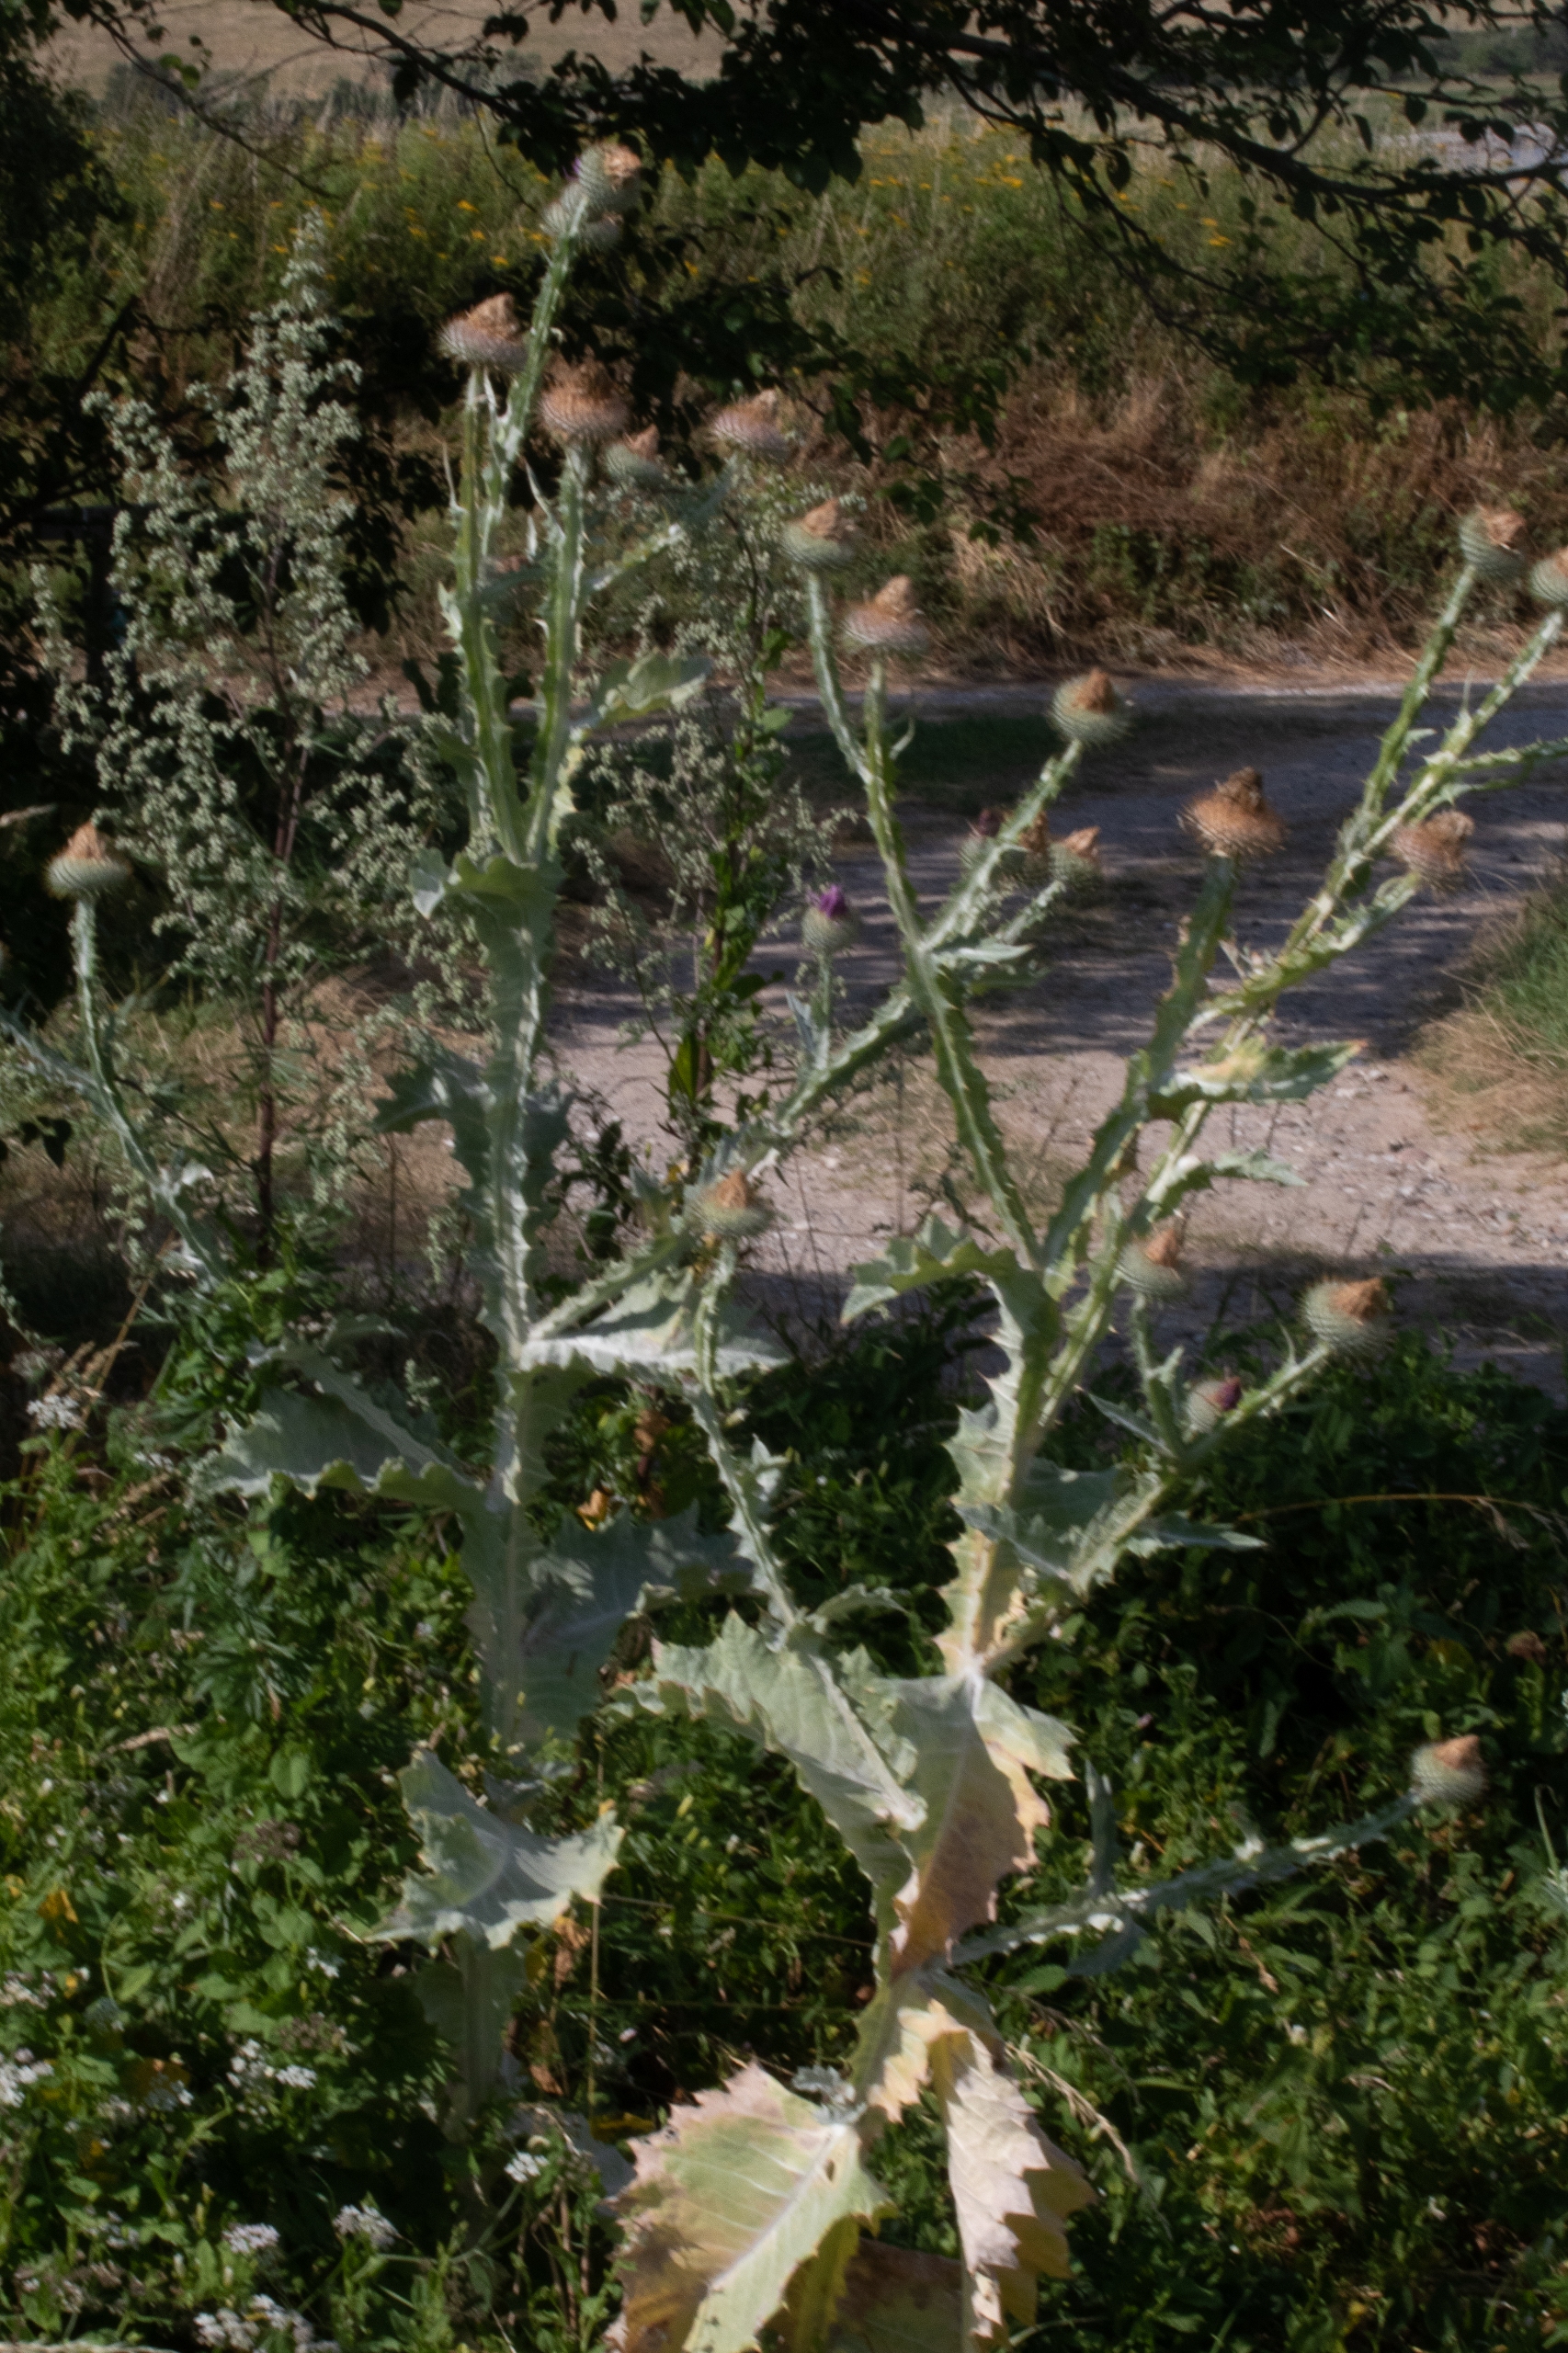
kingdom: Plantae
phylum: Tracheophyta
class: Magnoliopsida
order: Asterales
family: Asteraceae
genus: Onopordum
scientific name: Onopordum acanthium
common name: Æselfoder
